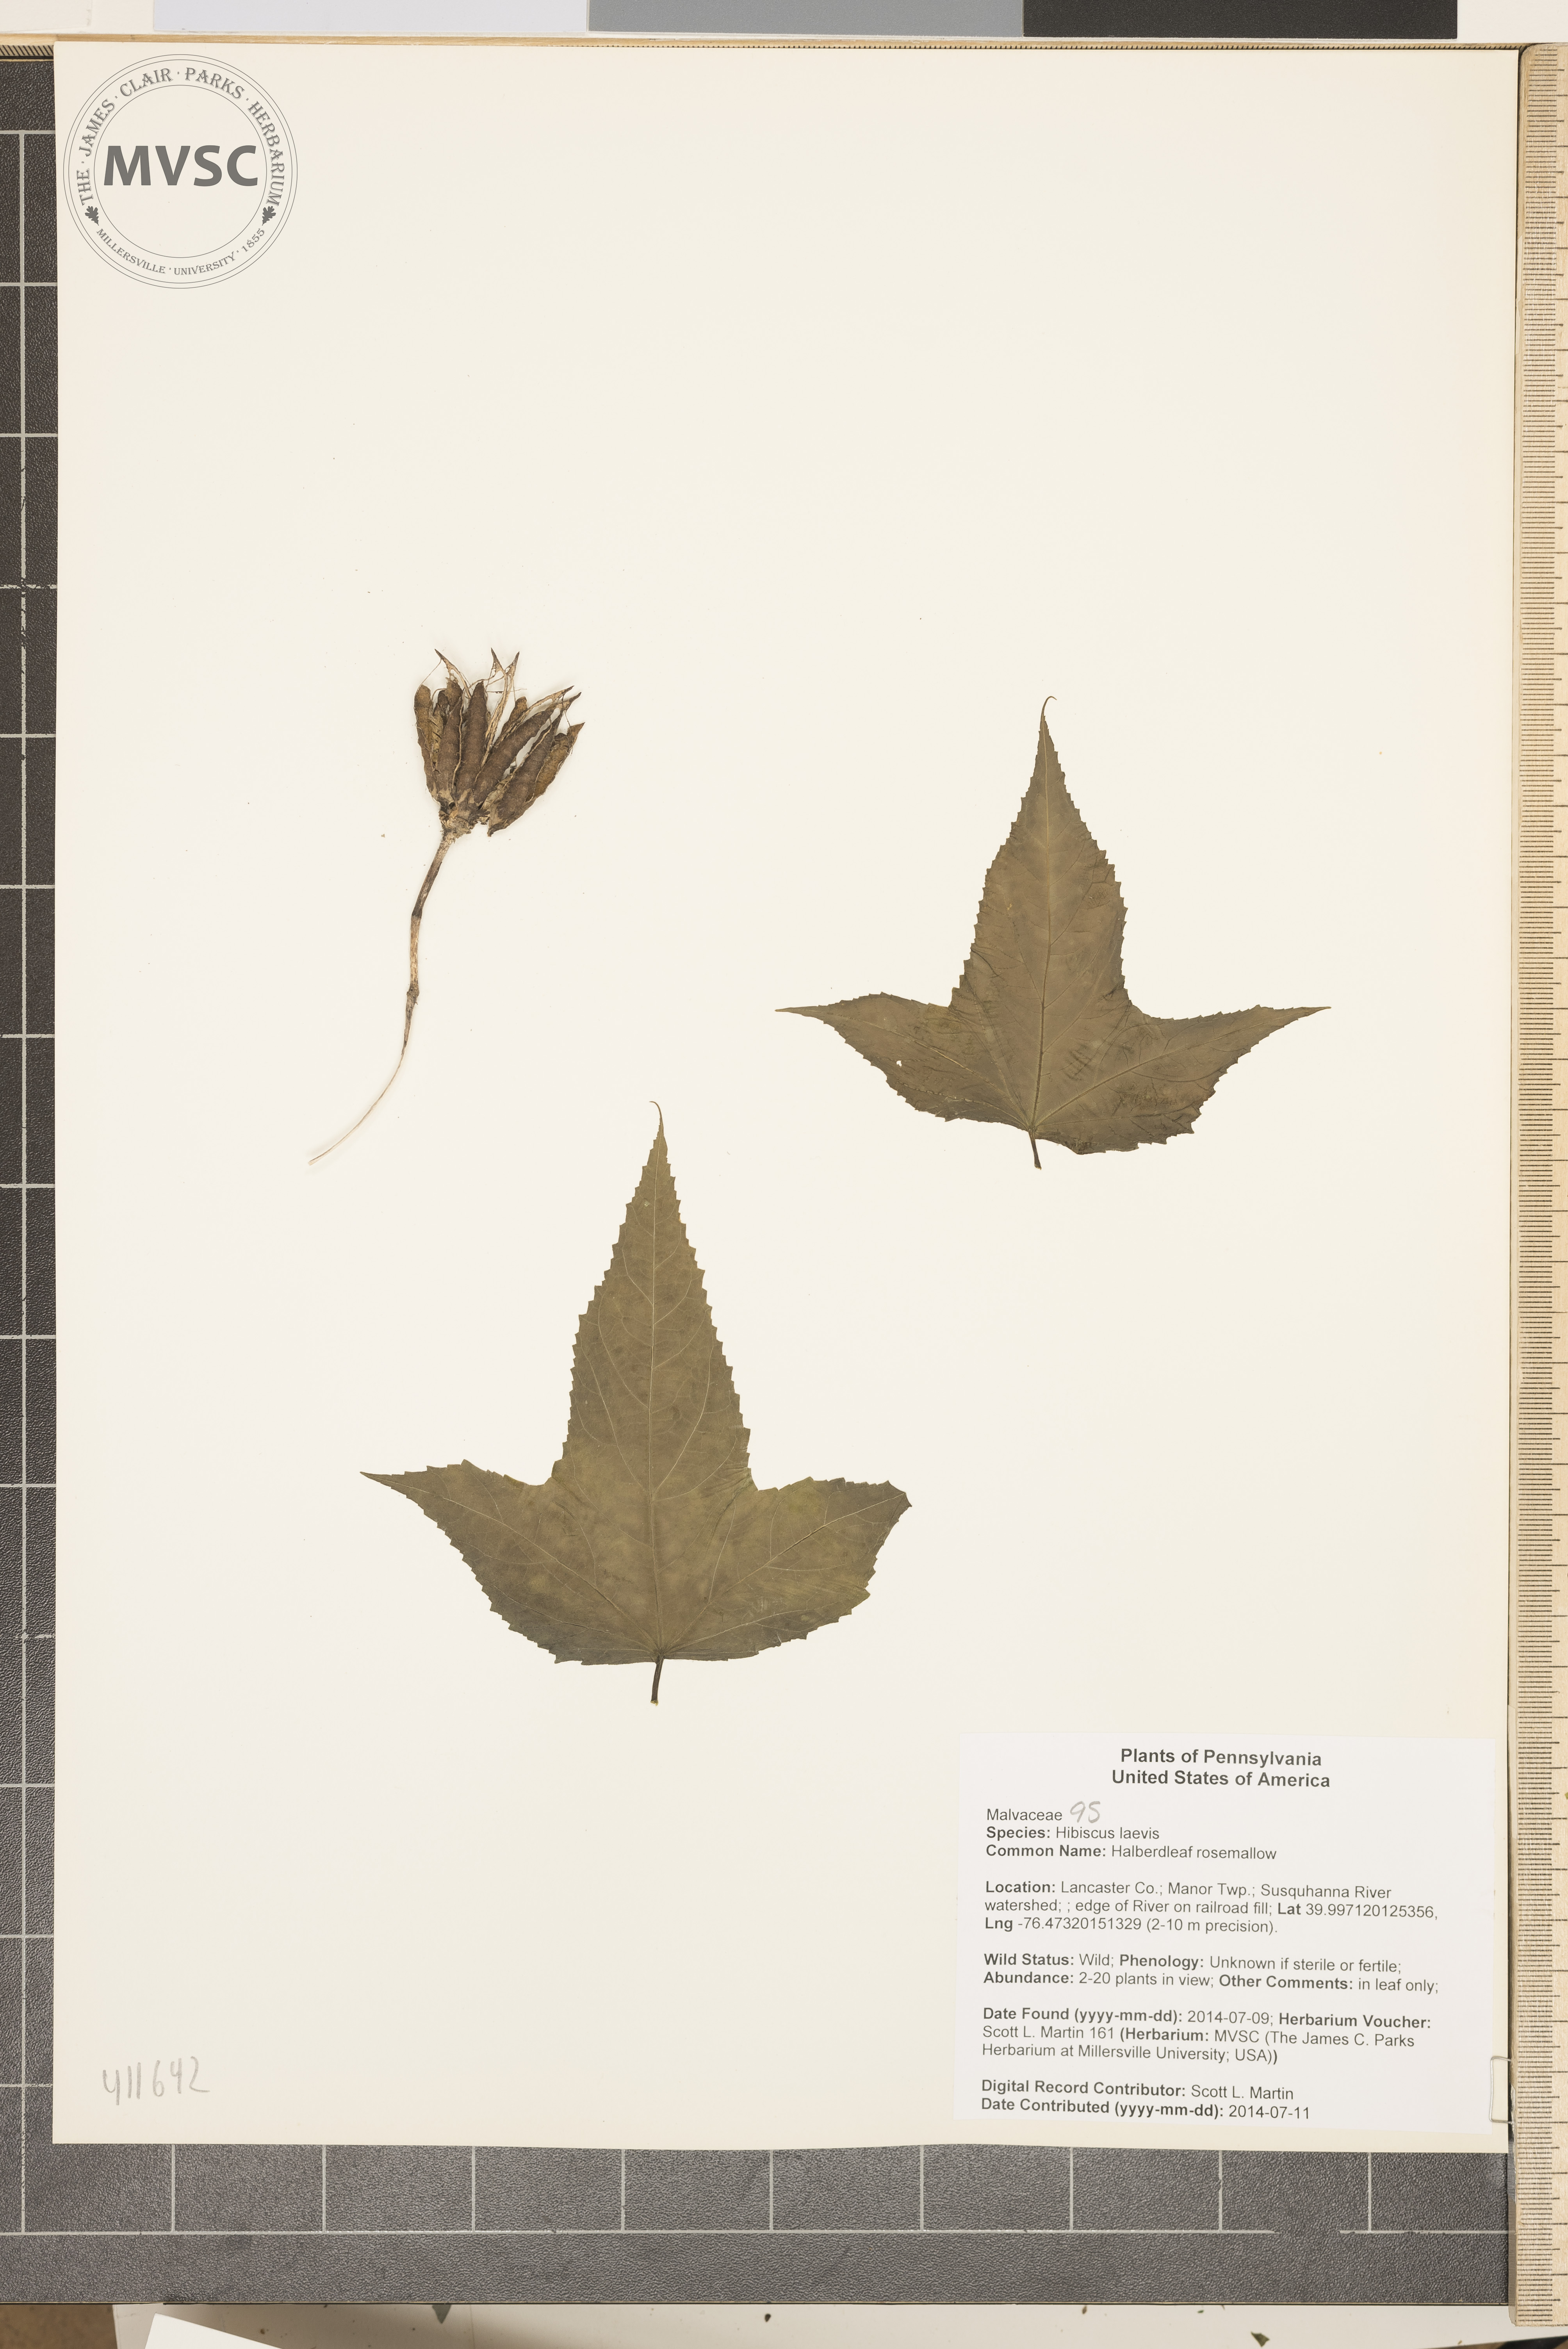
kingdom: Plantae
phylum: Tracheophyta
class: Magnoliopsida
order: Malvales
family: Malvaceae
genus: Hibiscus
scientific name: Hibiscus laevis
